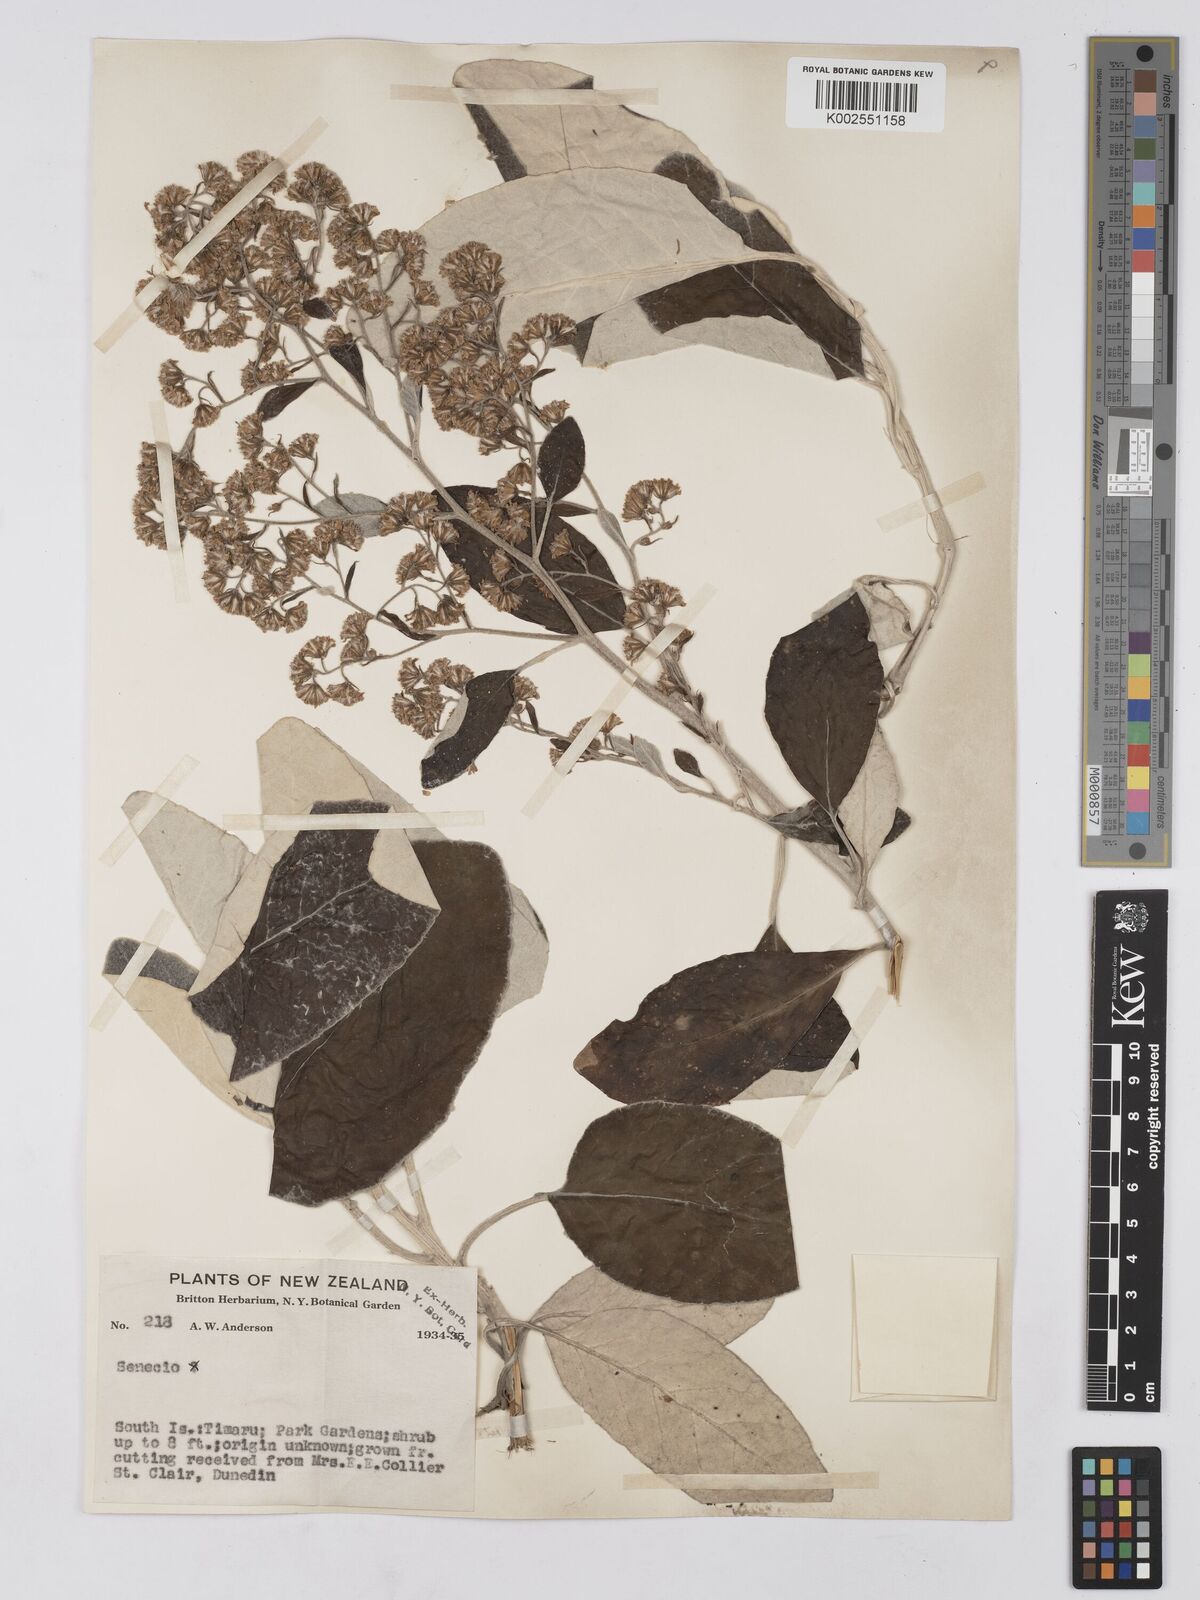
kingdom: Plantae
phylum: Tracheophyta
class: Magnoliopsida
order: Asterales
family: Asteraceae
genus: Brachyglottis
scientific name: Brachyglottis
